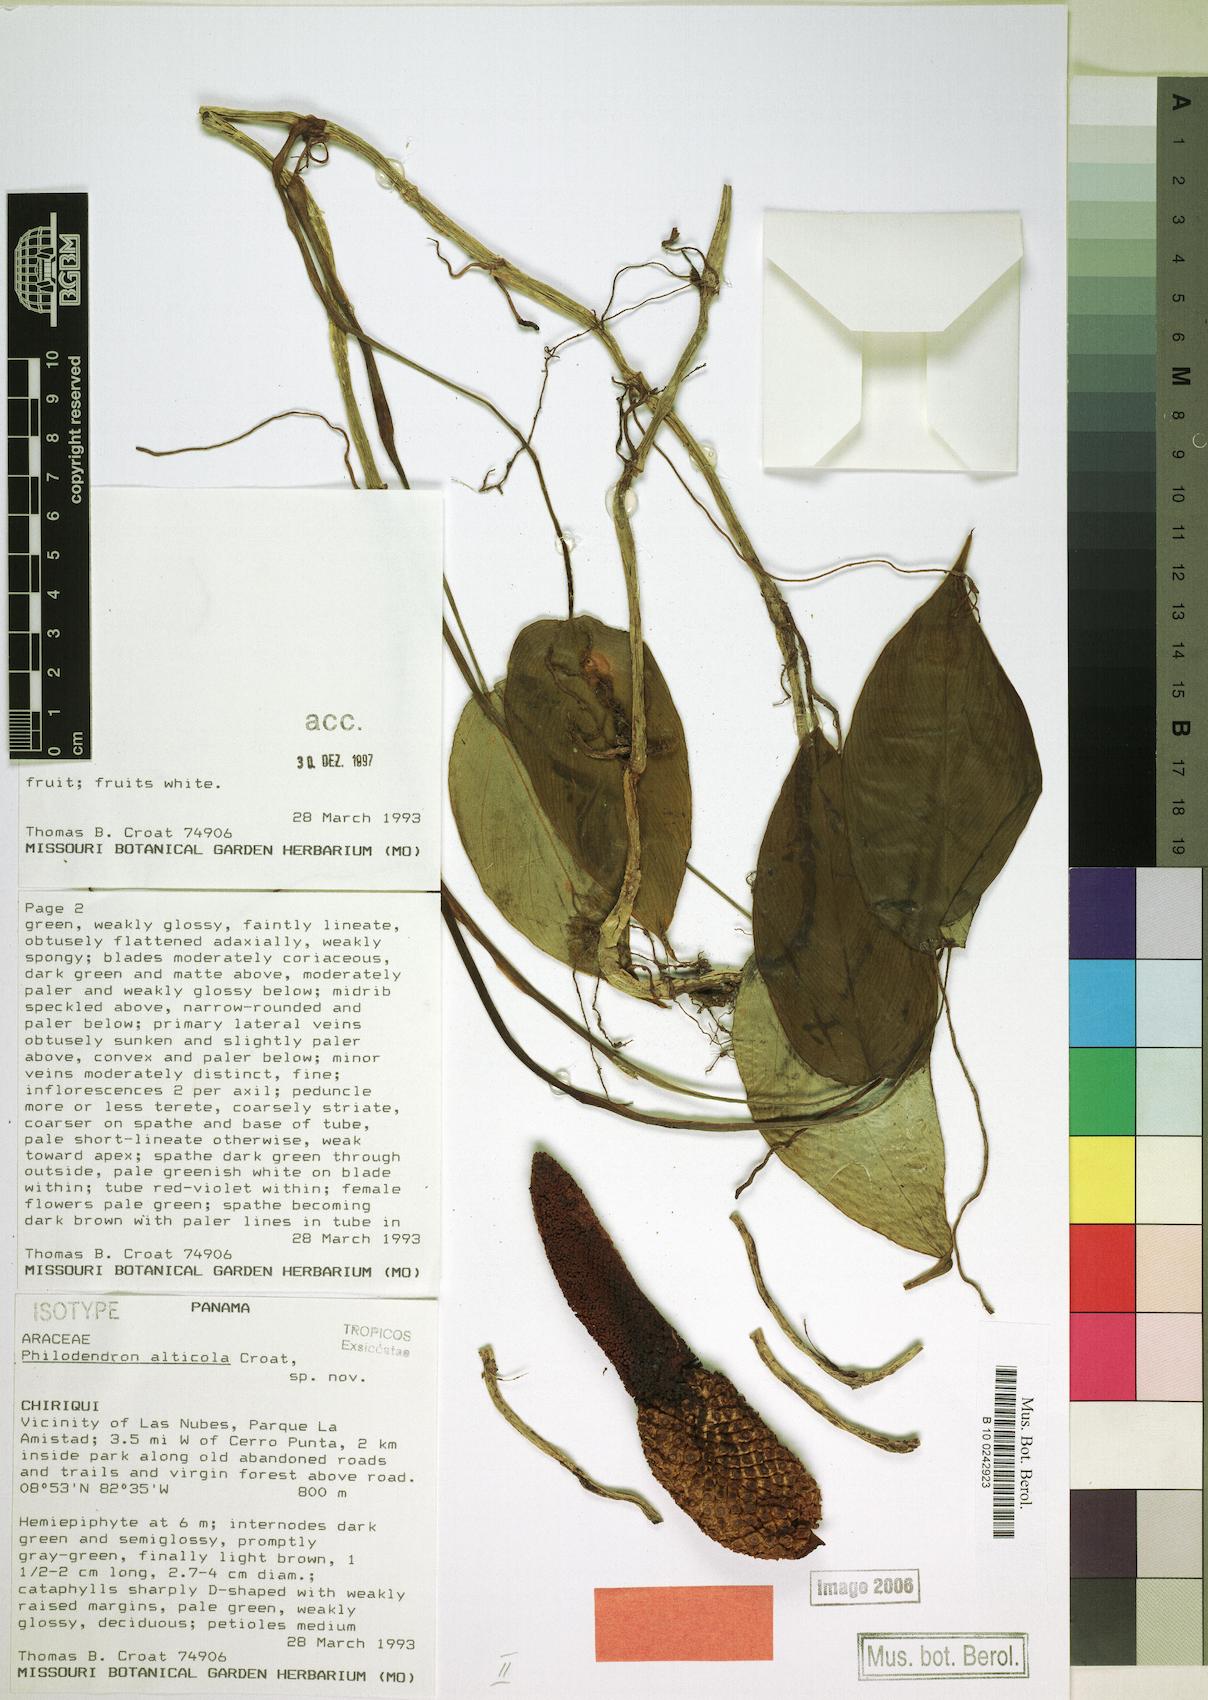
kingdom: Plantae
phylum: Tracheophyta
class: Liliopsida
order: Alismatales
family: Araceae
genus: Philodendron
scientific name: Philodendron alticola
